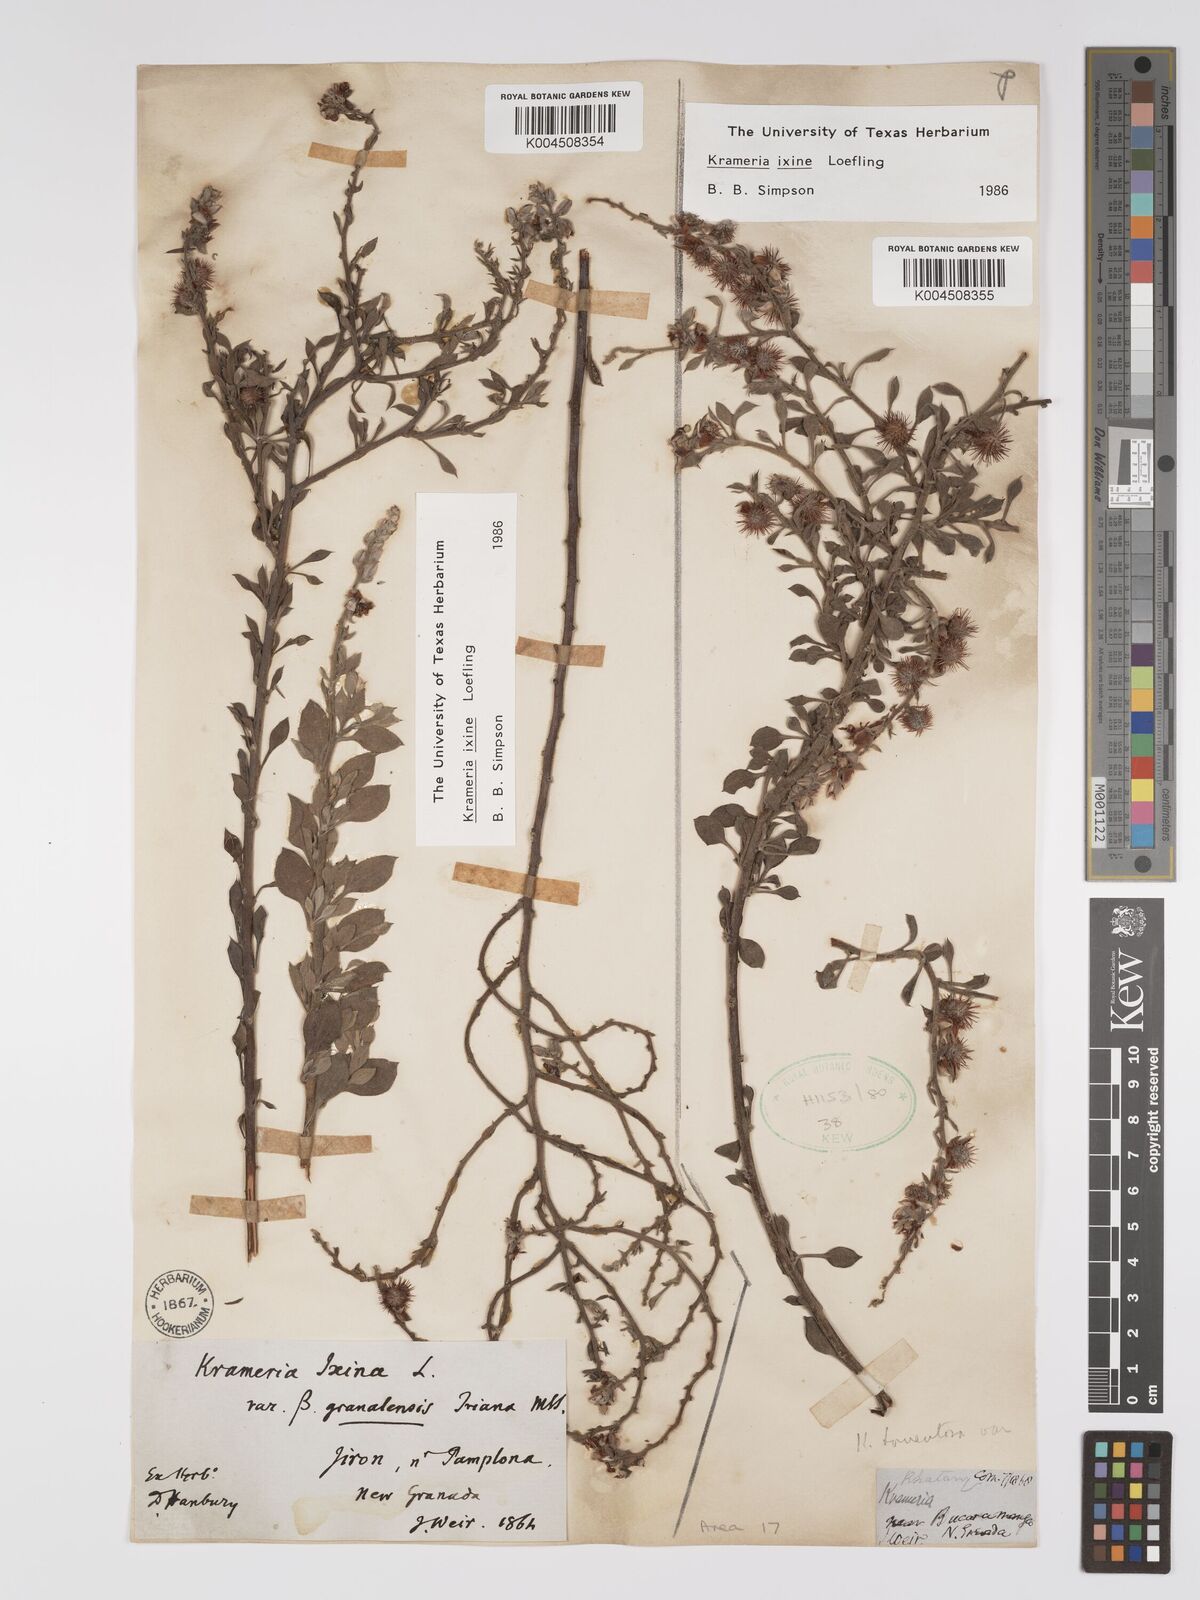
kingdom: Plantae
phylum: Tracheophyta
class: Magnoliopsida
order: Zygophyllales
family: Krameriaceae
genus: Krameria
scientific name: Krameria ixine
